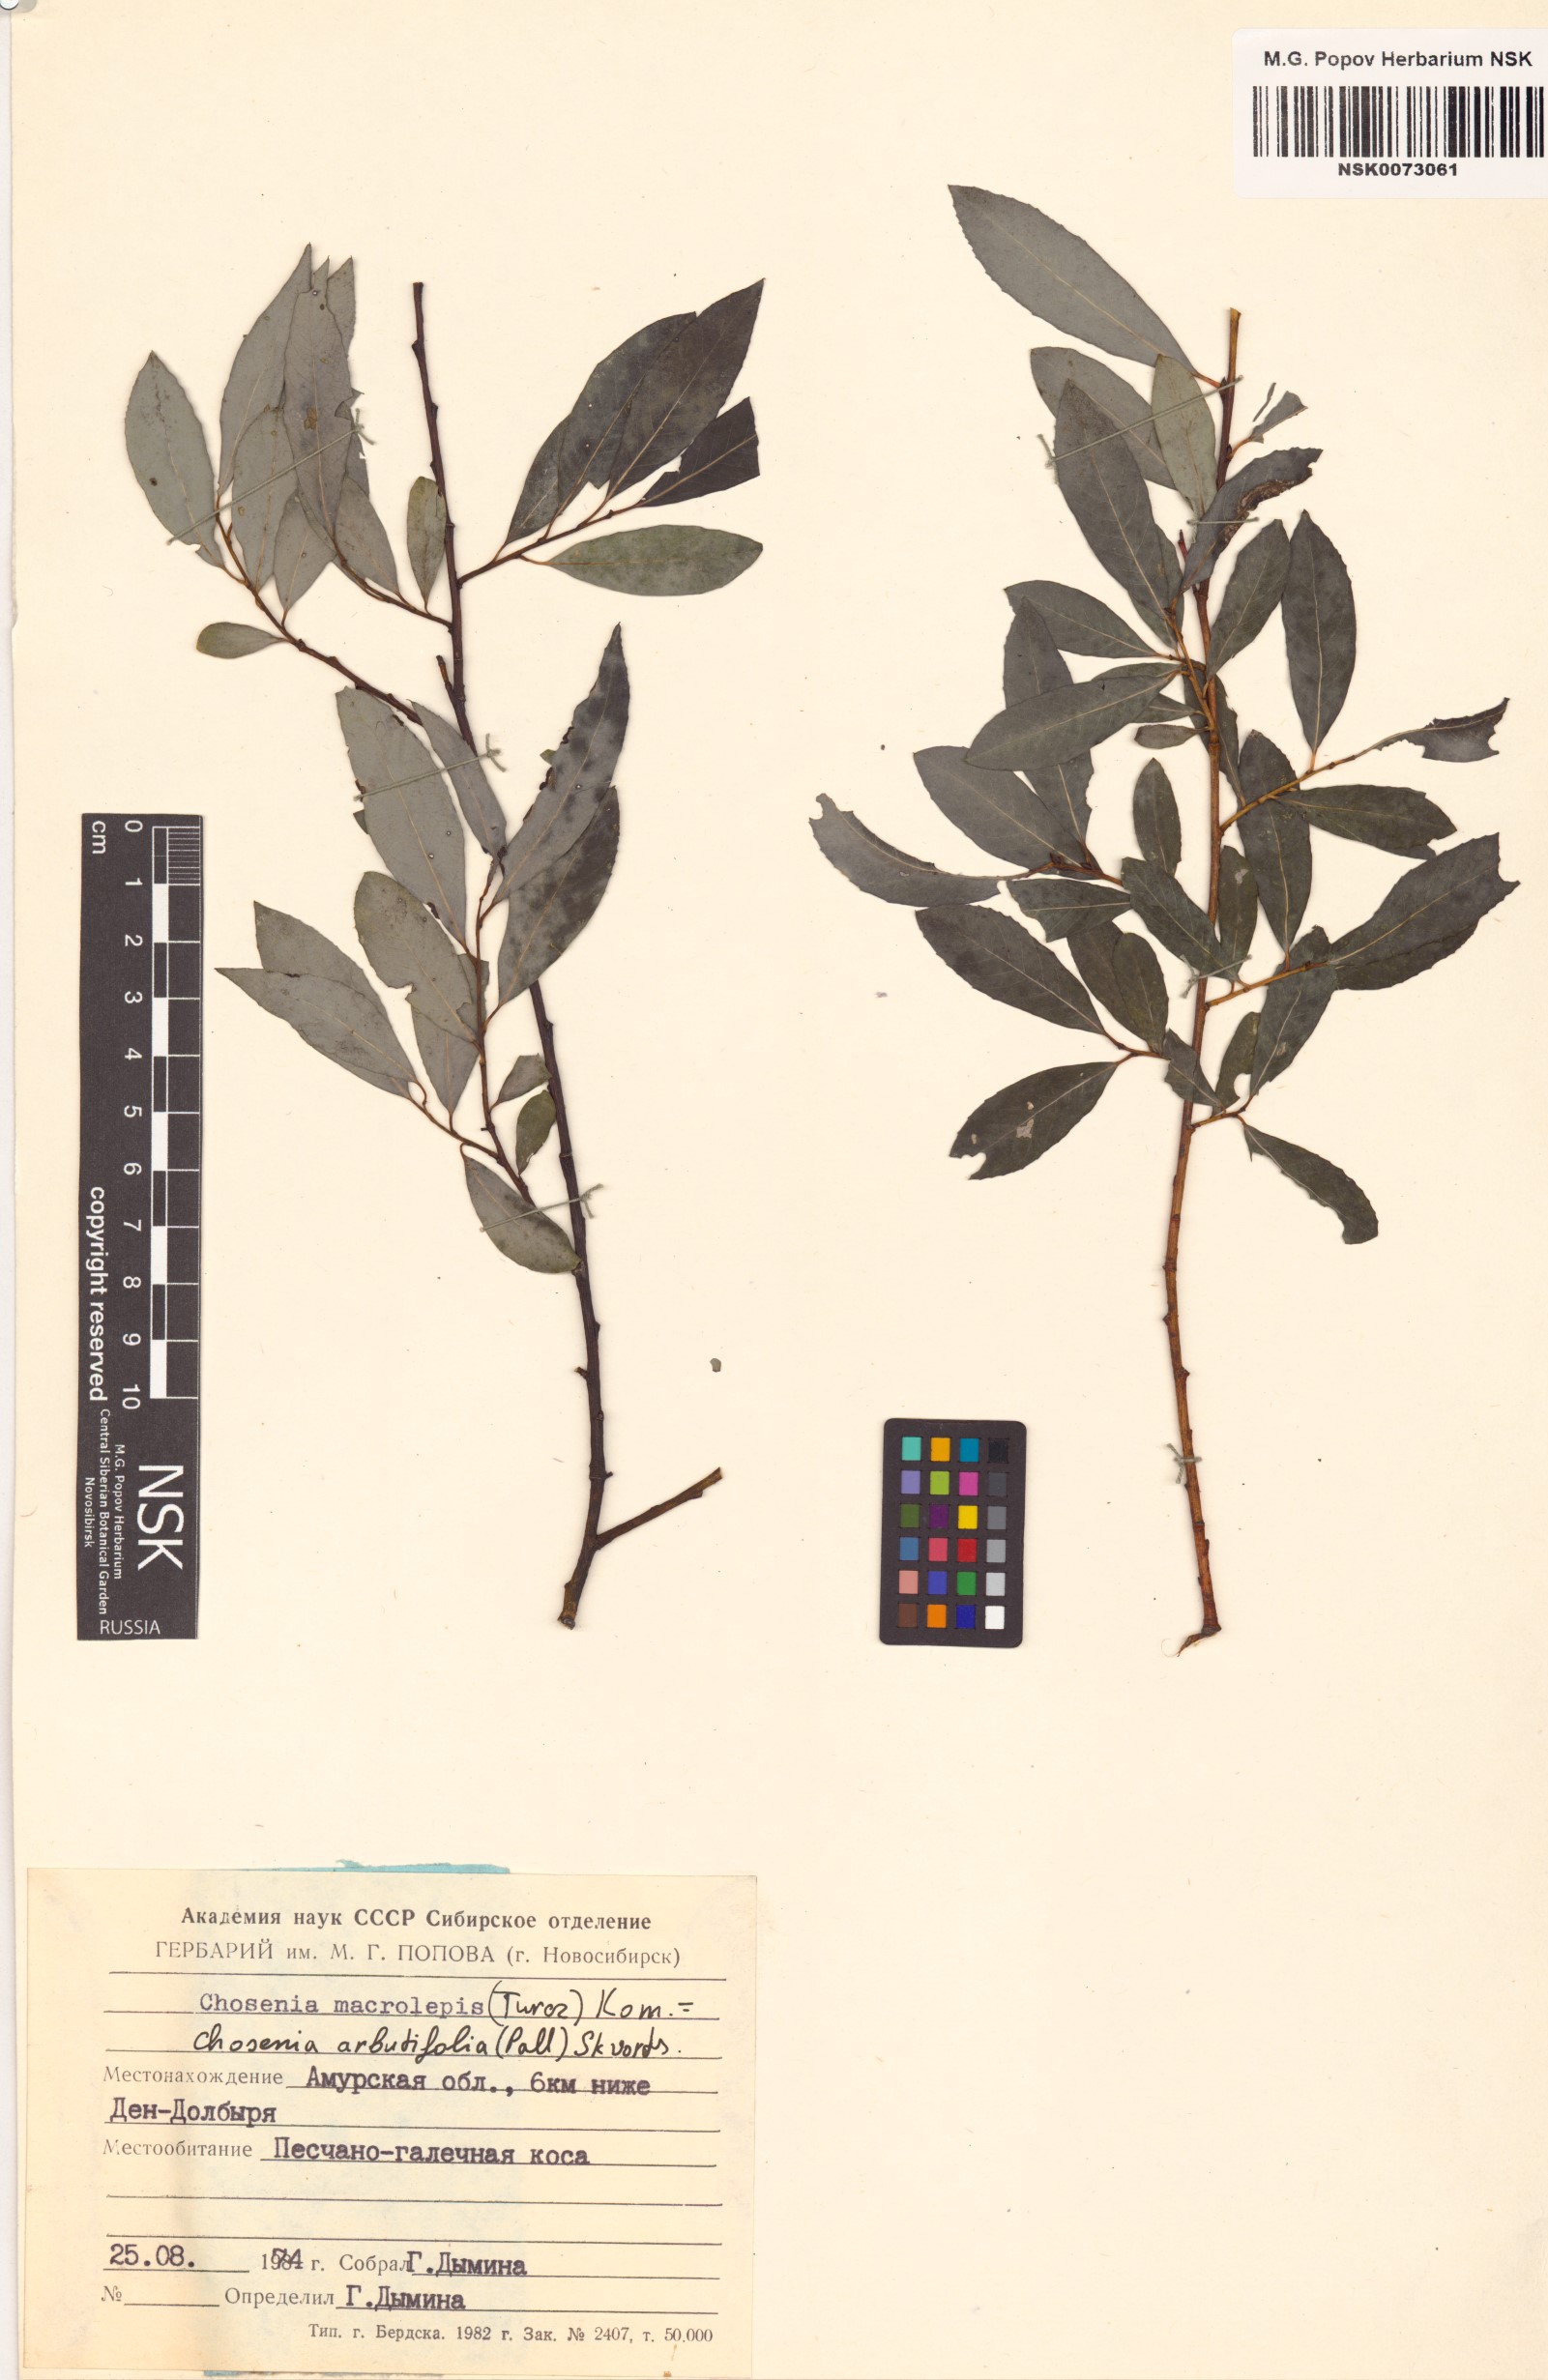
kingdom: Plantae
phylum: Tracheophyta
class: Magnoliopsida
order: Malpighiales
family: Salicaceae
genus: Chosenia
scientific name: Chosenia arbutifolia
